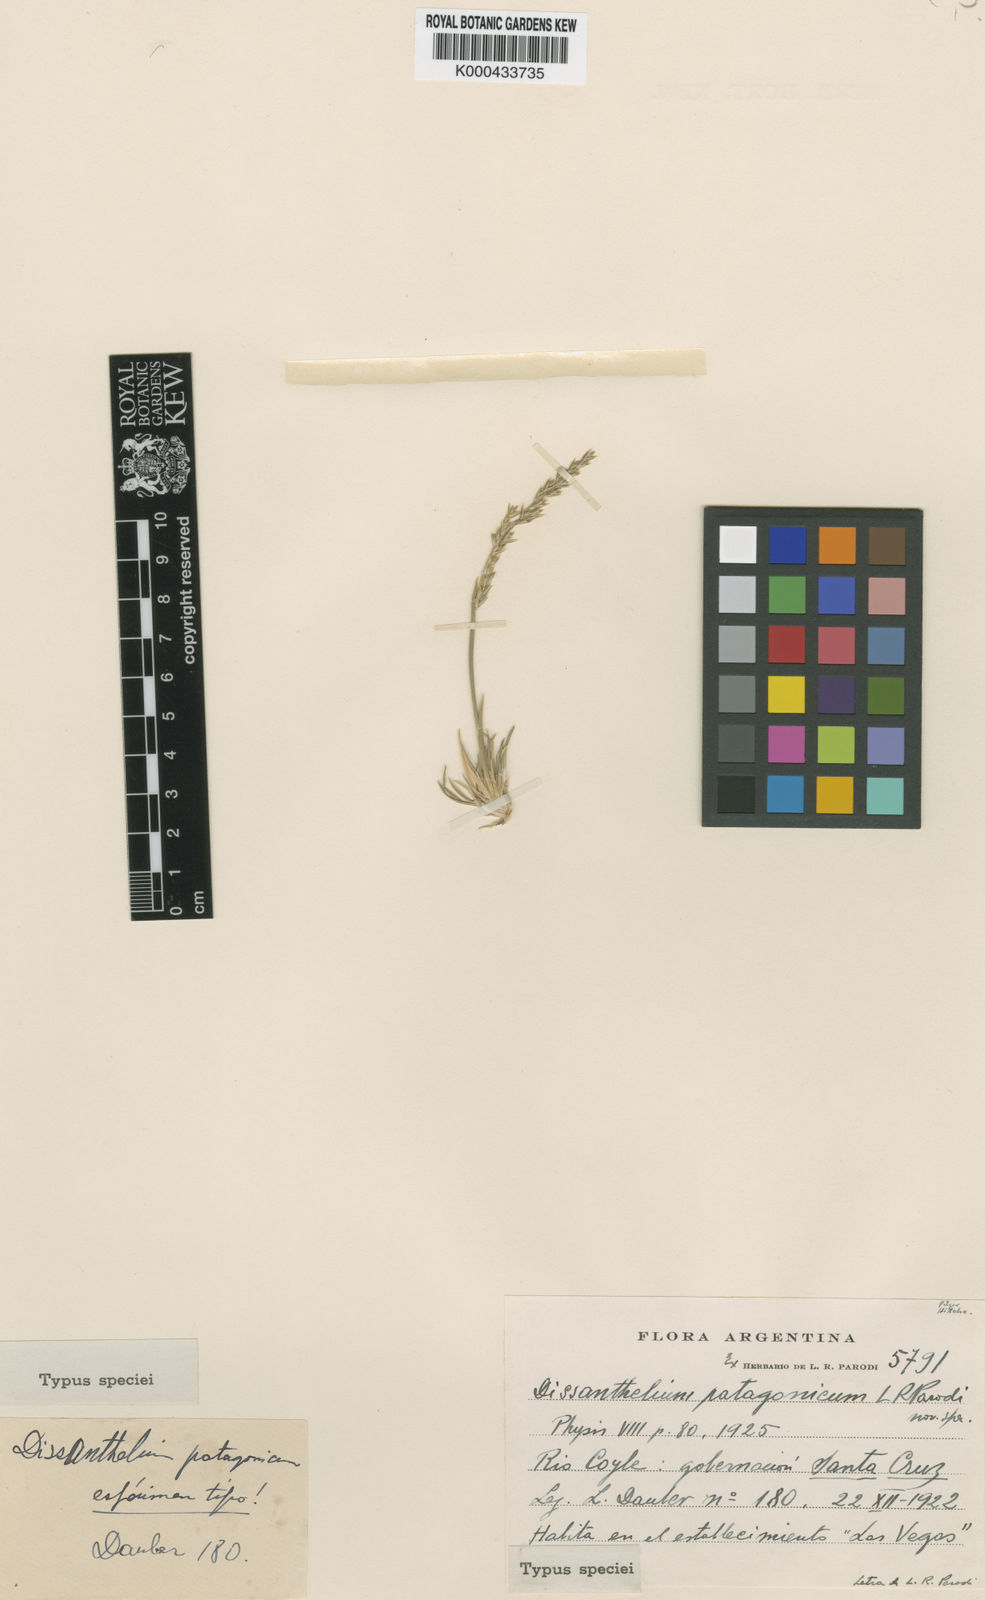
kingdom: Plantae
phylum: Tracheophyta
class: Liliopsida
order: Poales
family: Poaceae
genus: Poa
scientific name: Poa atropidiformis
